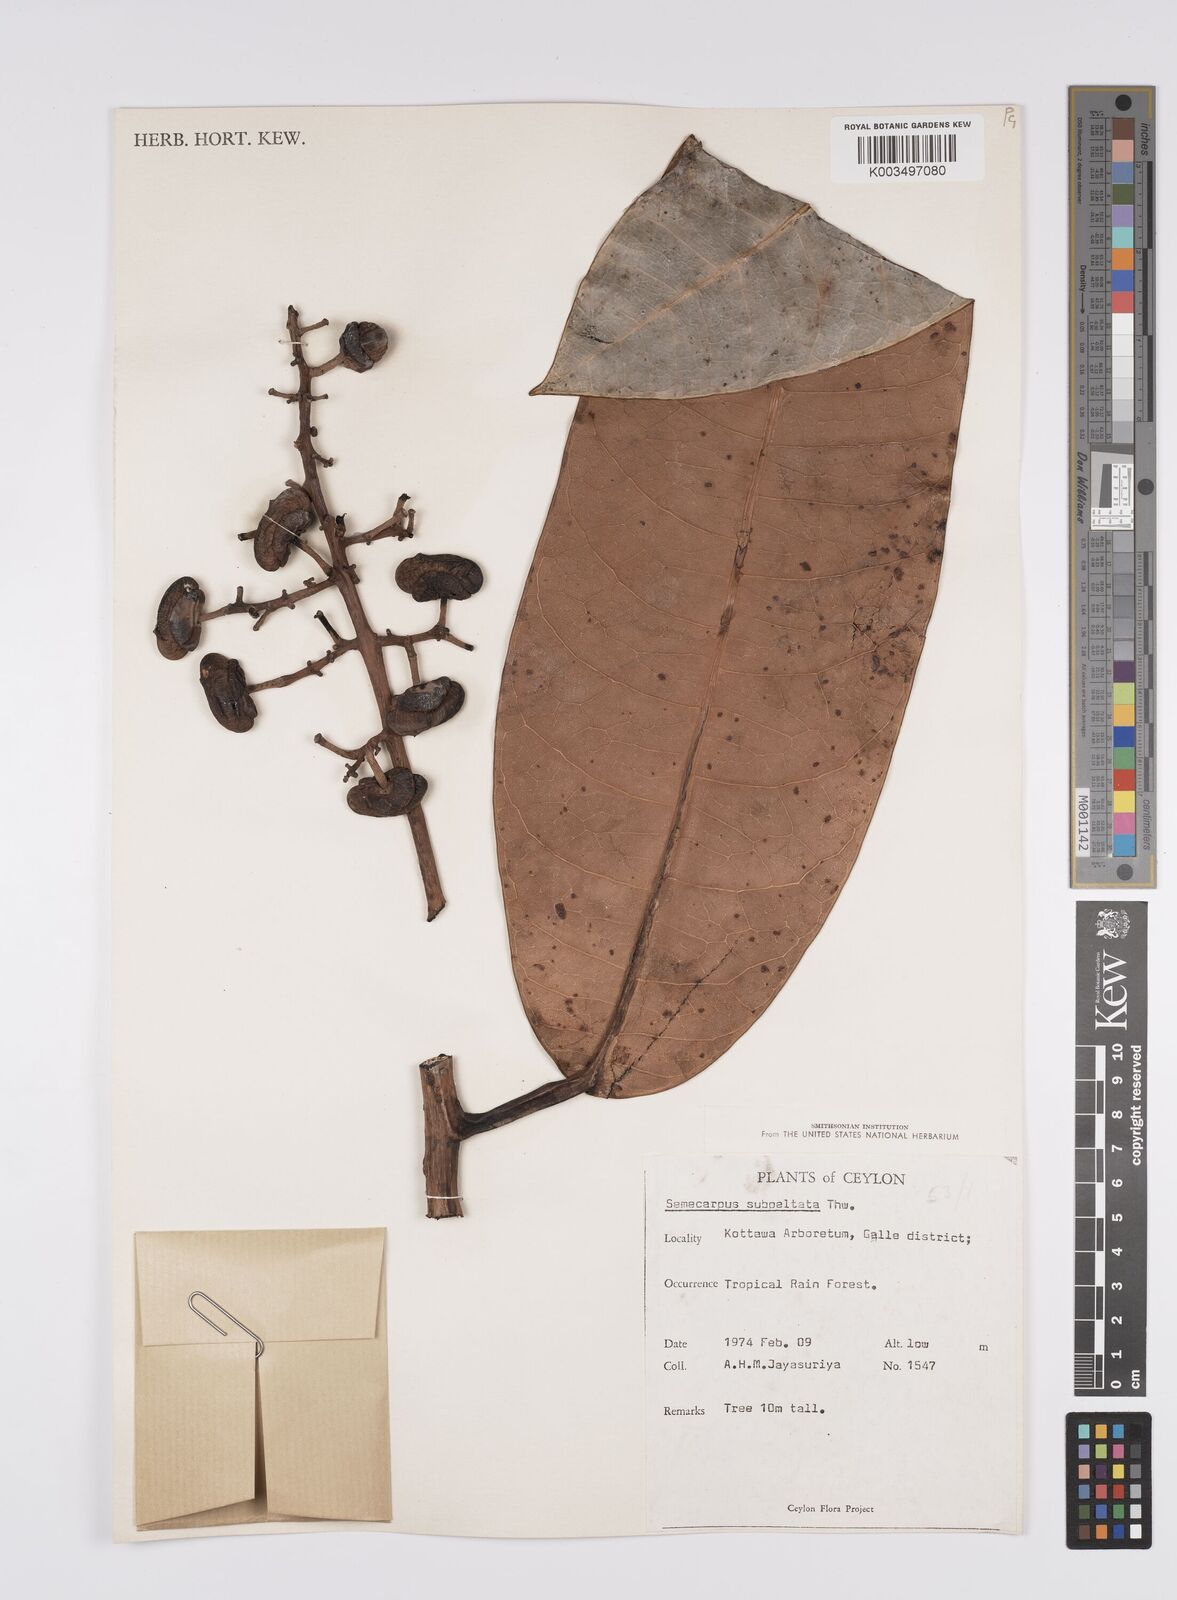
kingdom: Plantae
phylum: Tracheophyta
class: Magnoliopsida
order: Sapindales
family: Anacardiaceae
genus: Semecarpus
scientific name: Semecarpus subpeltatus
